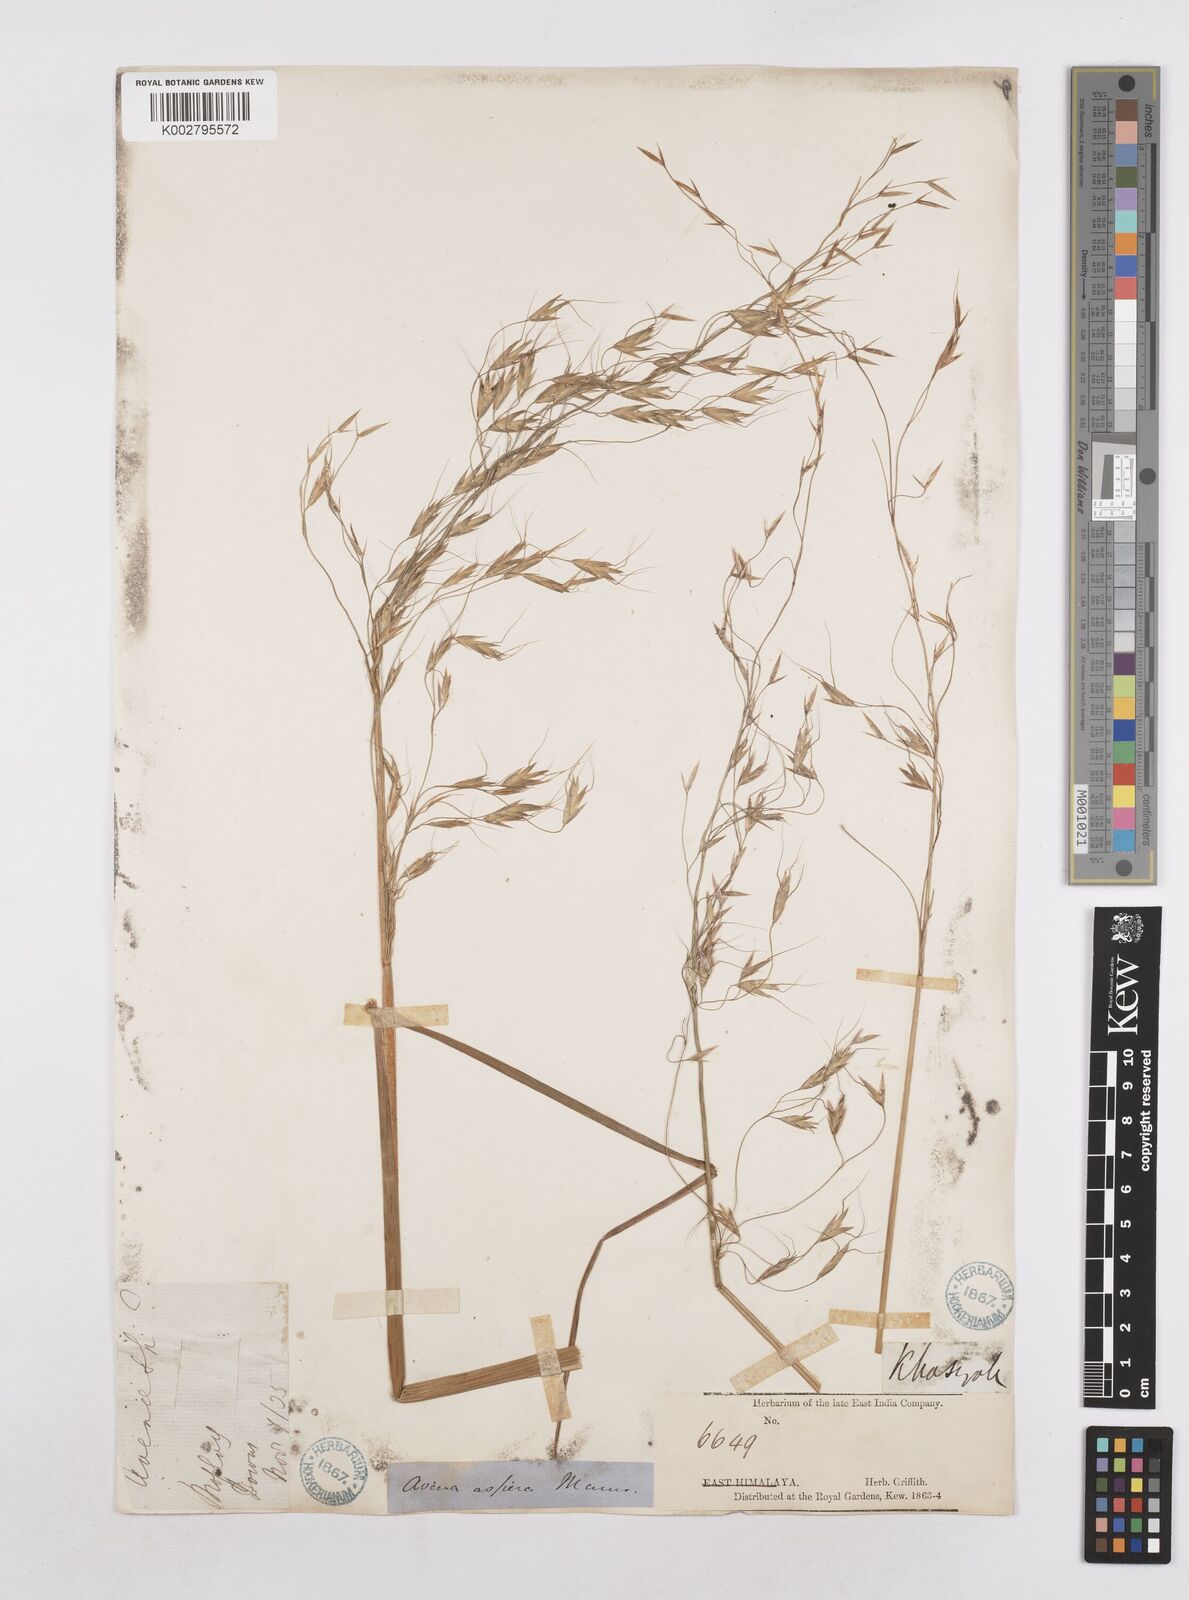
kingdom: Plantae
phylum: Tracheophyta
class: Liliopsida
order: Poales
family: Poaceae
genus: Trisetopsis
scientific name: Trisetopsis junghuhnii
